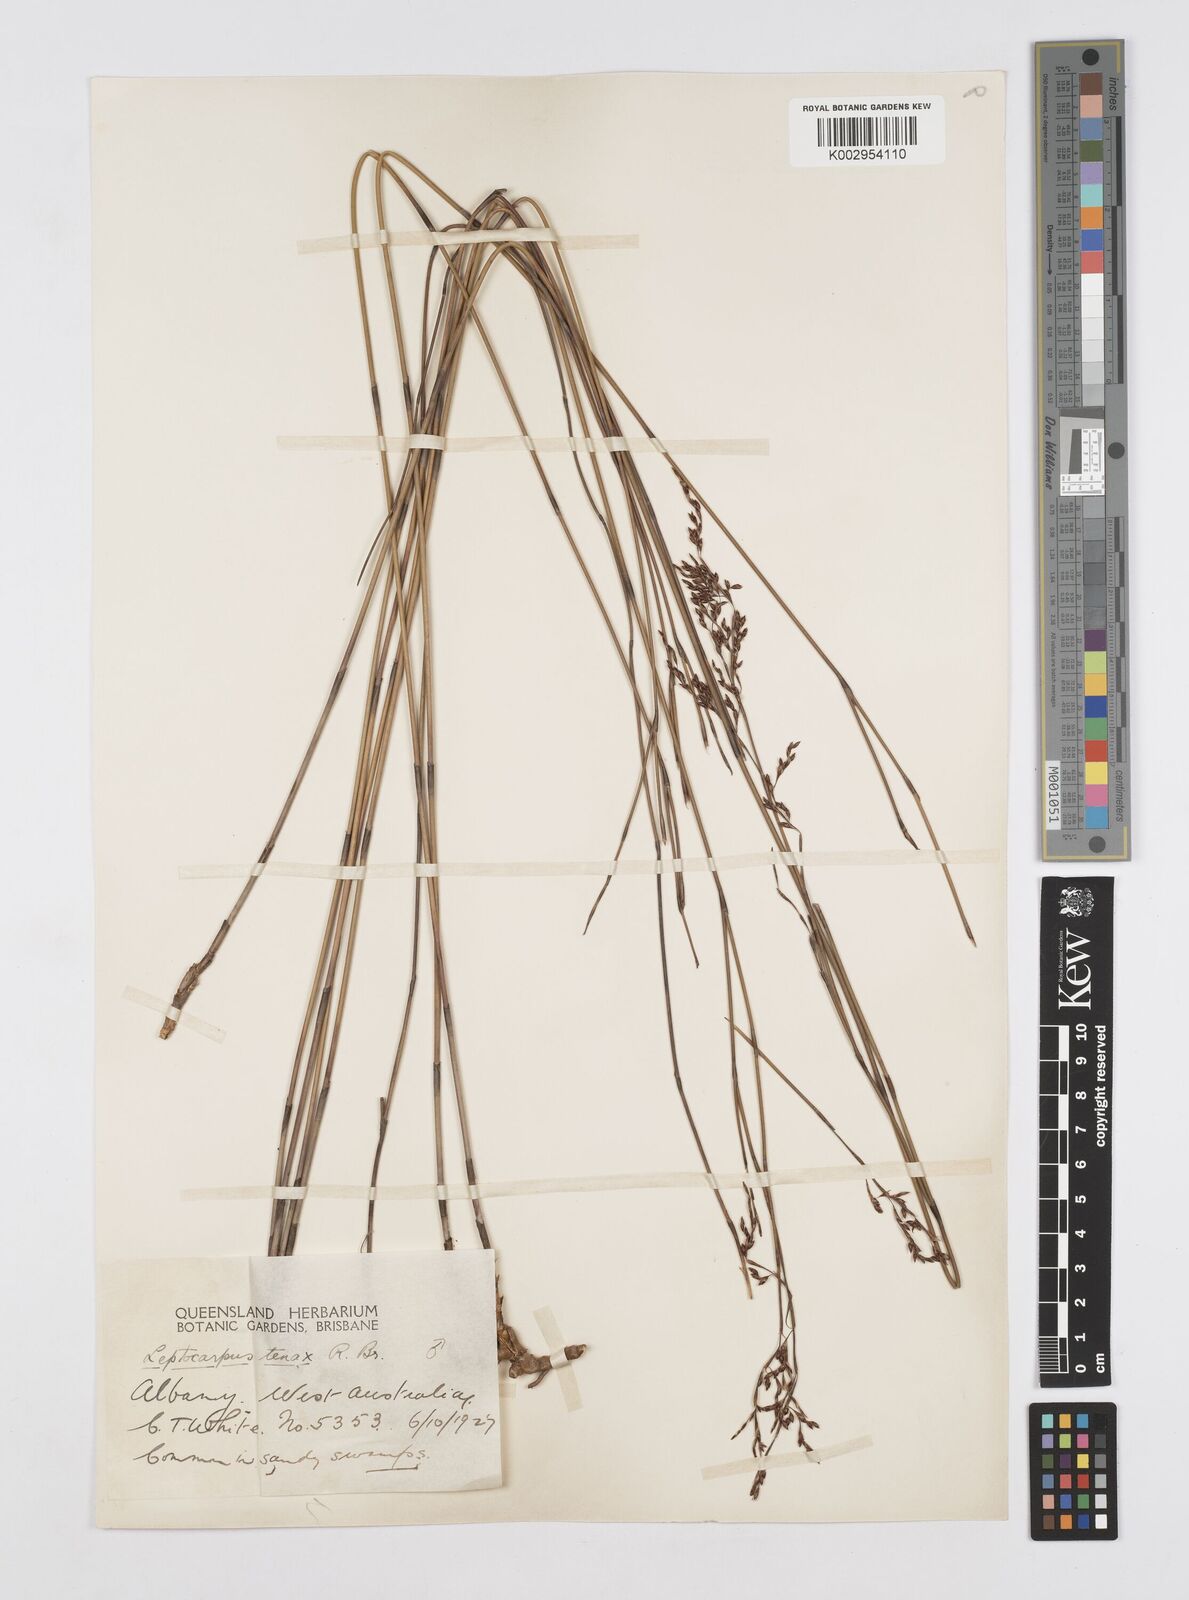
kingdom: Plantae
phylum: Tracheophyta
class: Liliopsida
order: Poales
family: Restionaceae
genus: Leptocarpus
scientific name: Leptocarpus tenax
